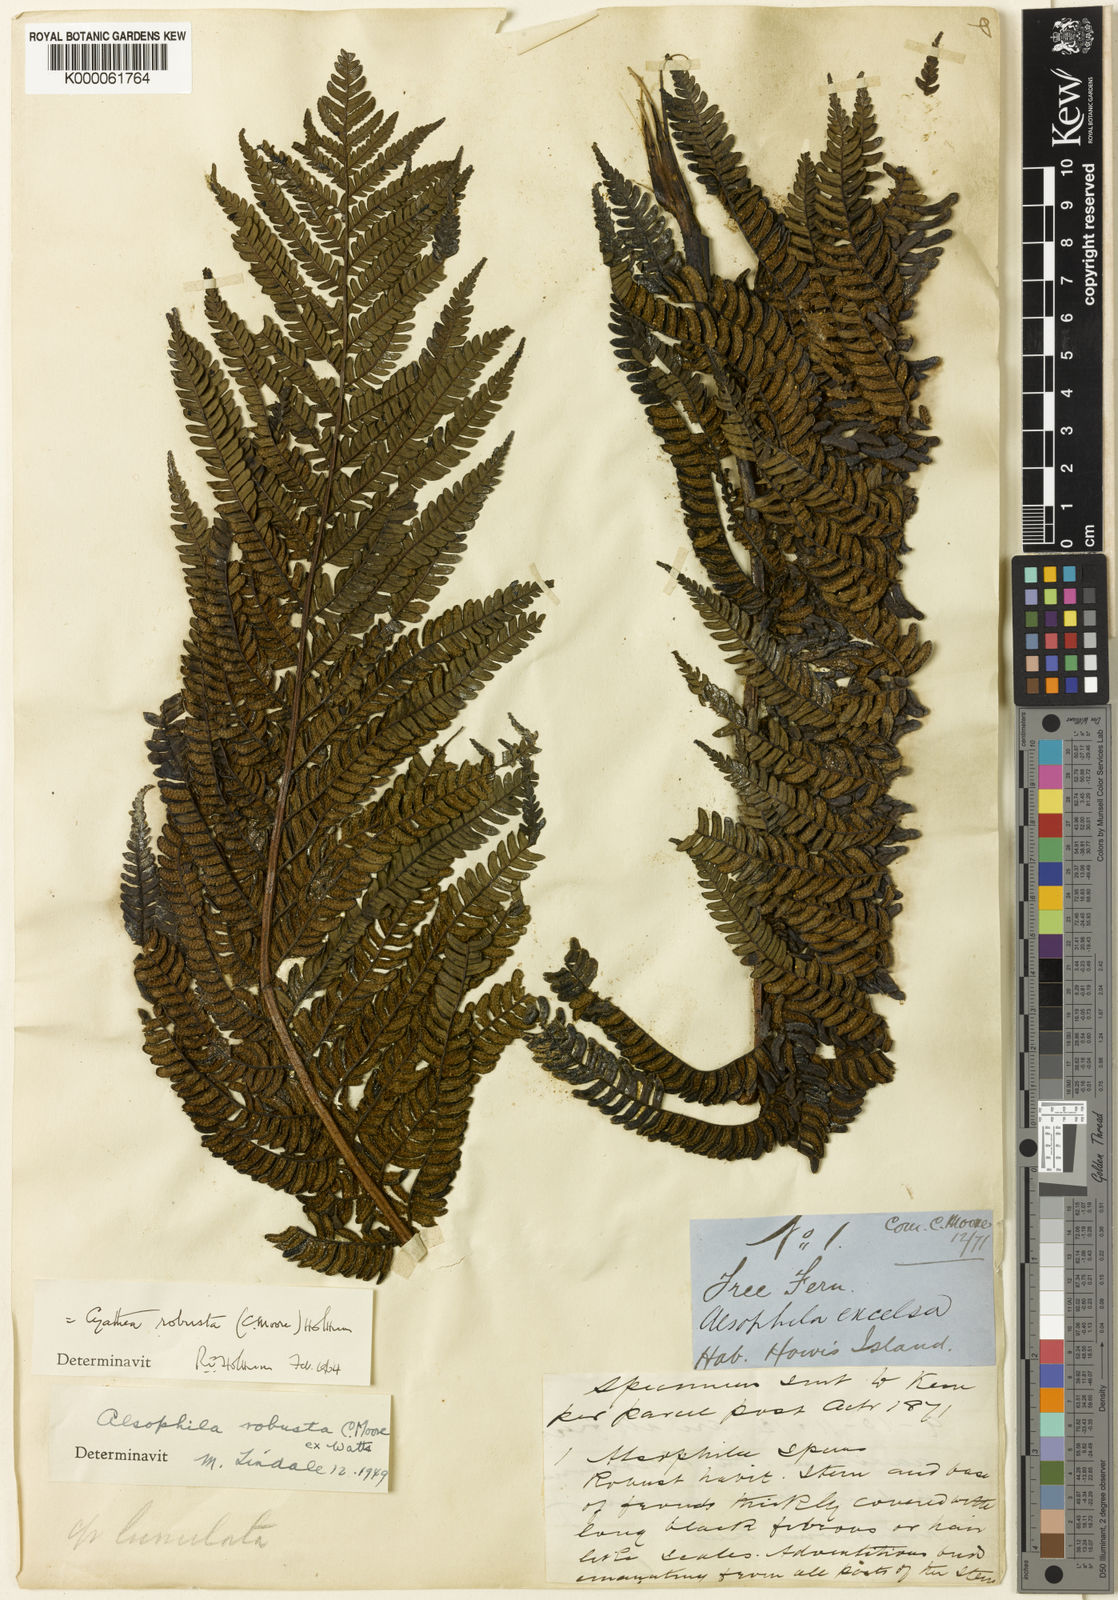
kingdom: Plantae
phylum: Tracheophyta
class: Polypodiopsida
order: Cyatheales
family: Cyatheaceae
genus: Sphaeropteris
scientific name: Sphaeropteris robusta
